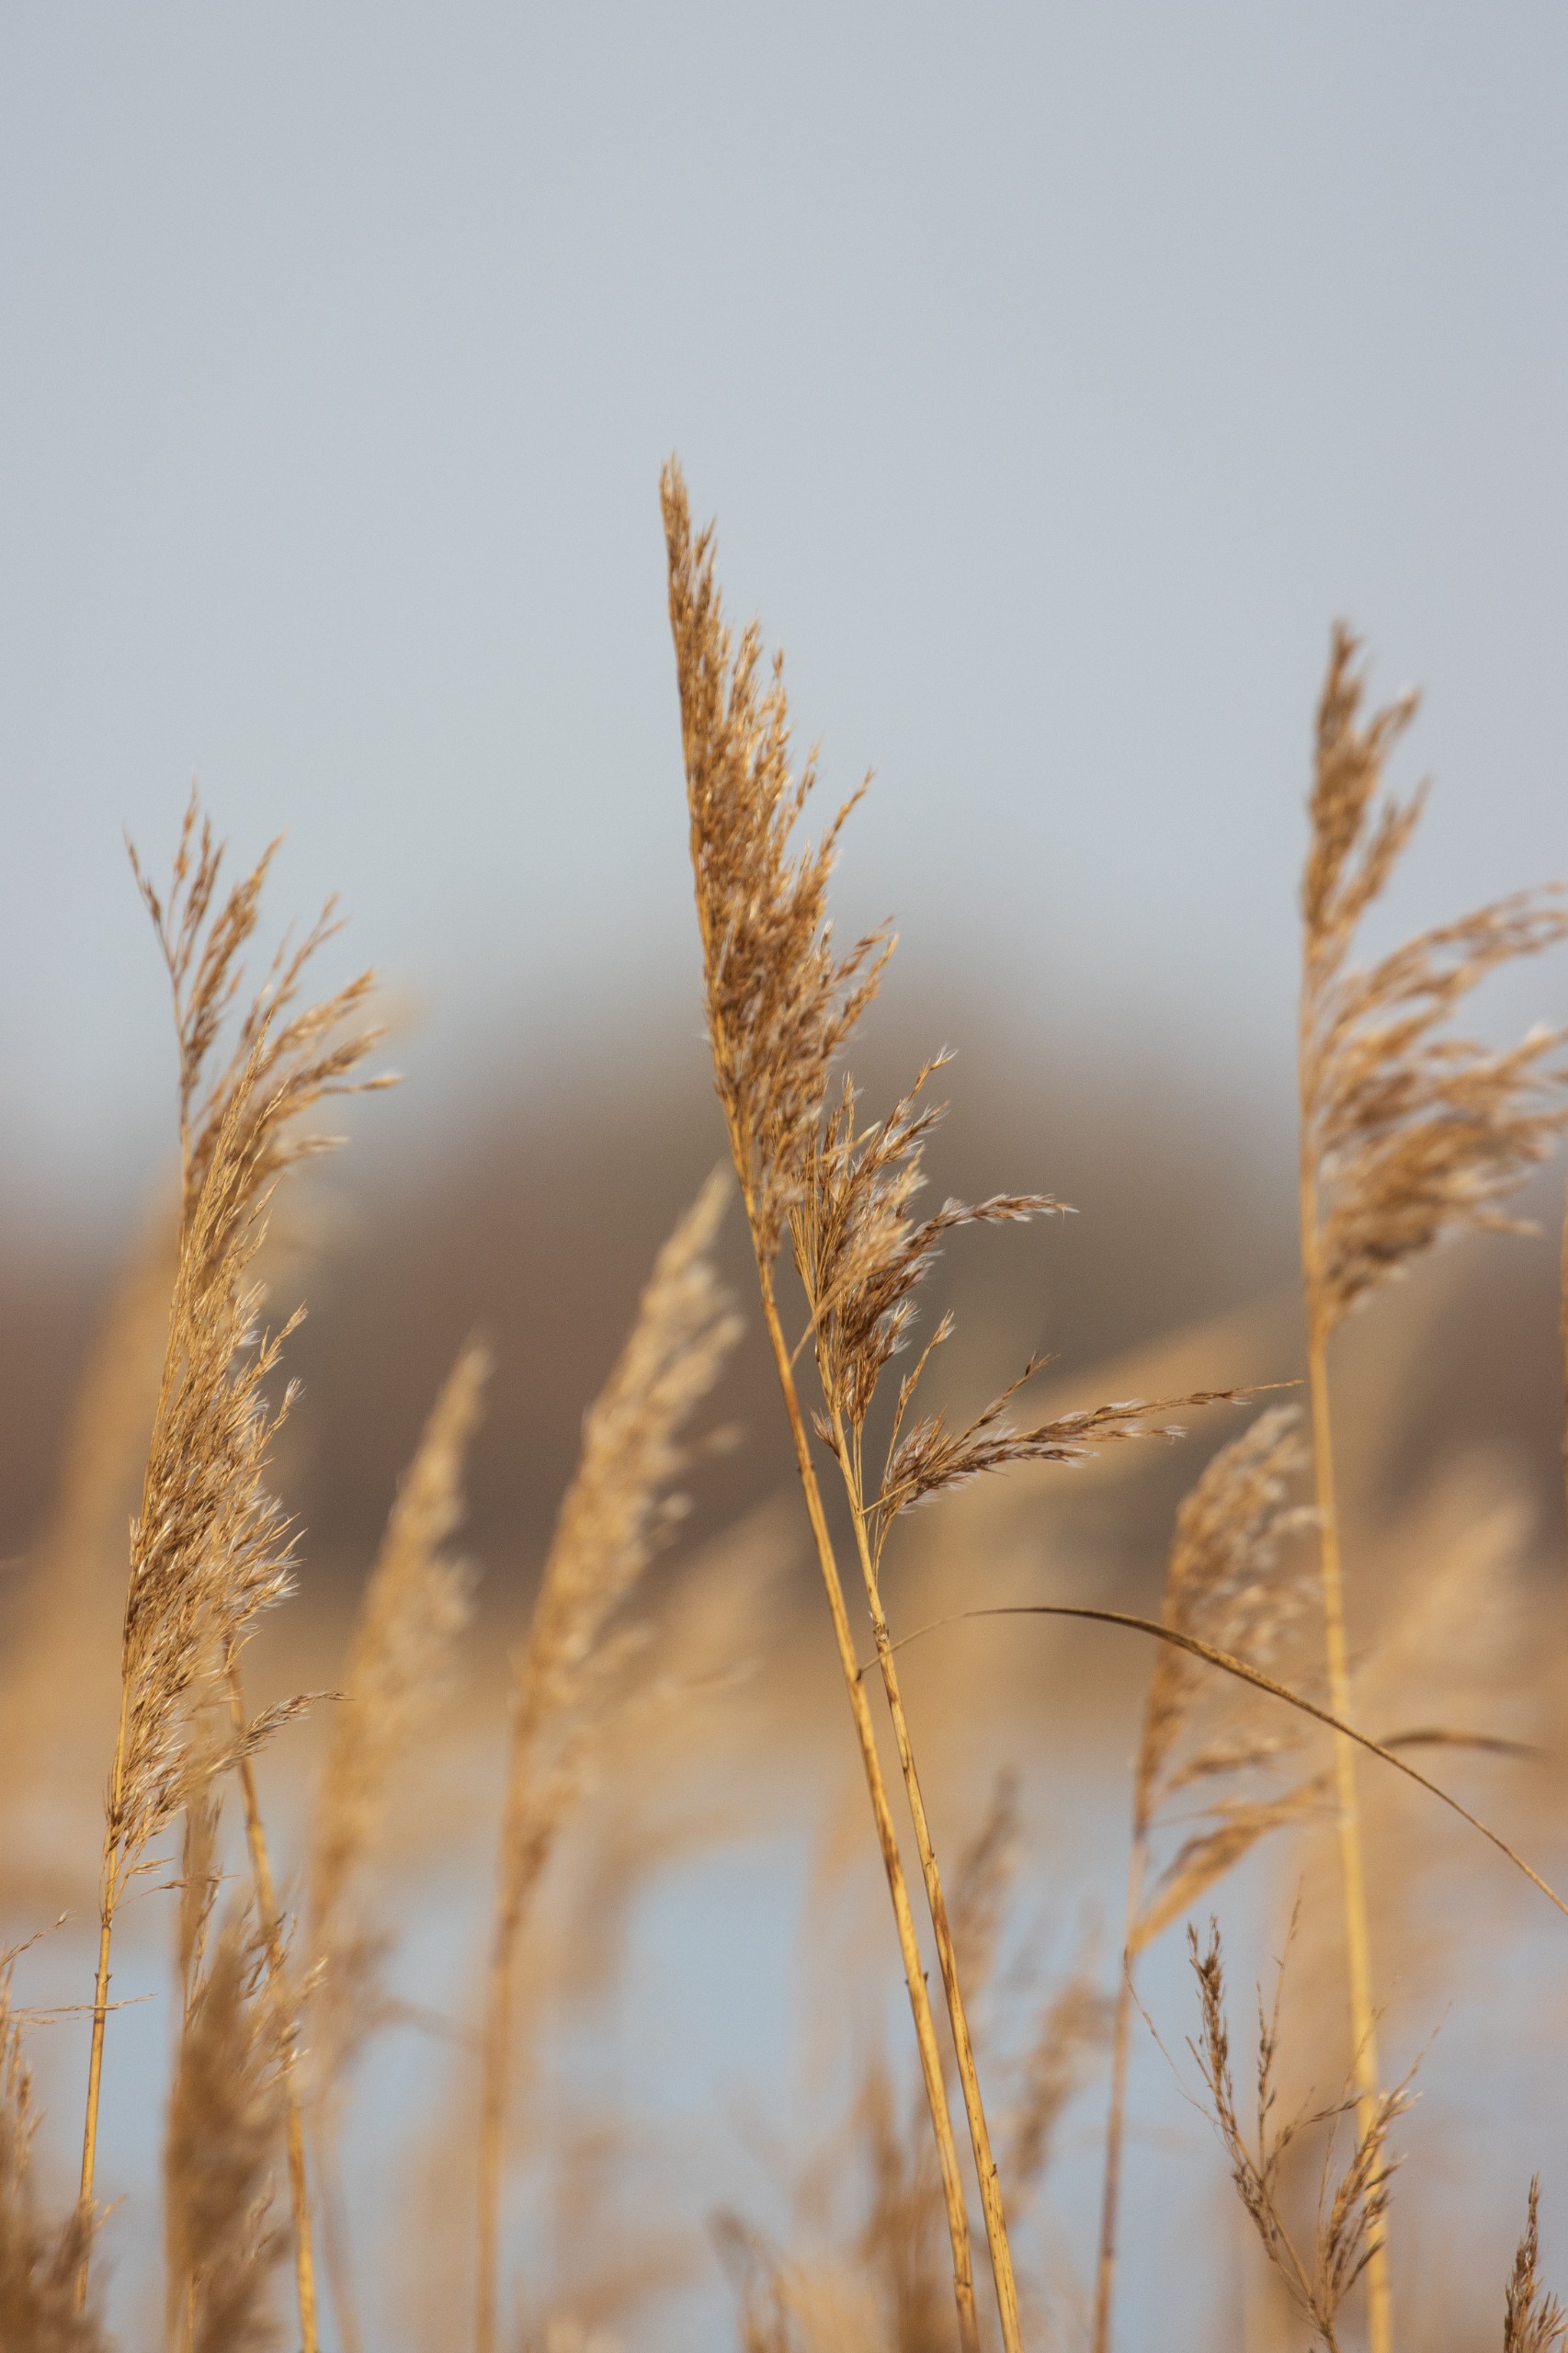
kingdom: Plantae
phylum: Tracheophyta
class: Liliopsida
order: Poales
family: Poaceae
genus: Phragmites
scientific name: Phragmites australis
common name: Tagrør
